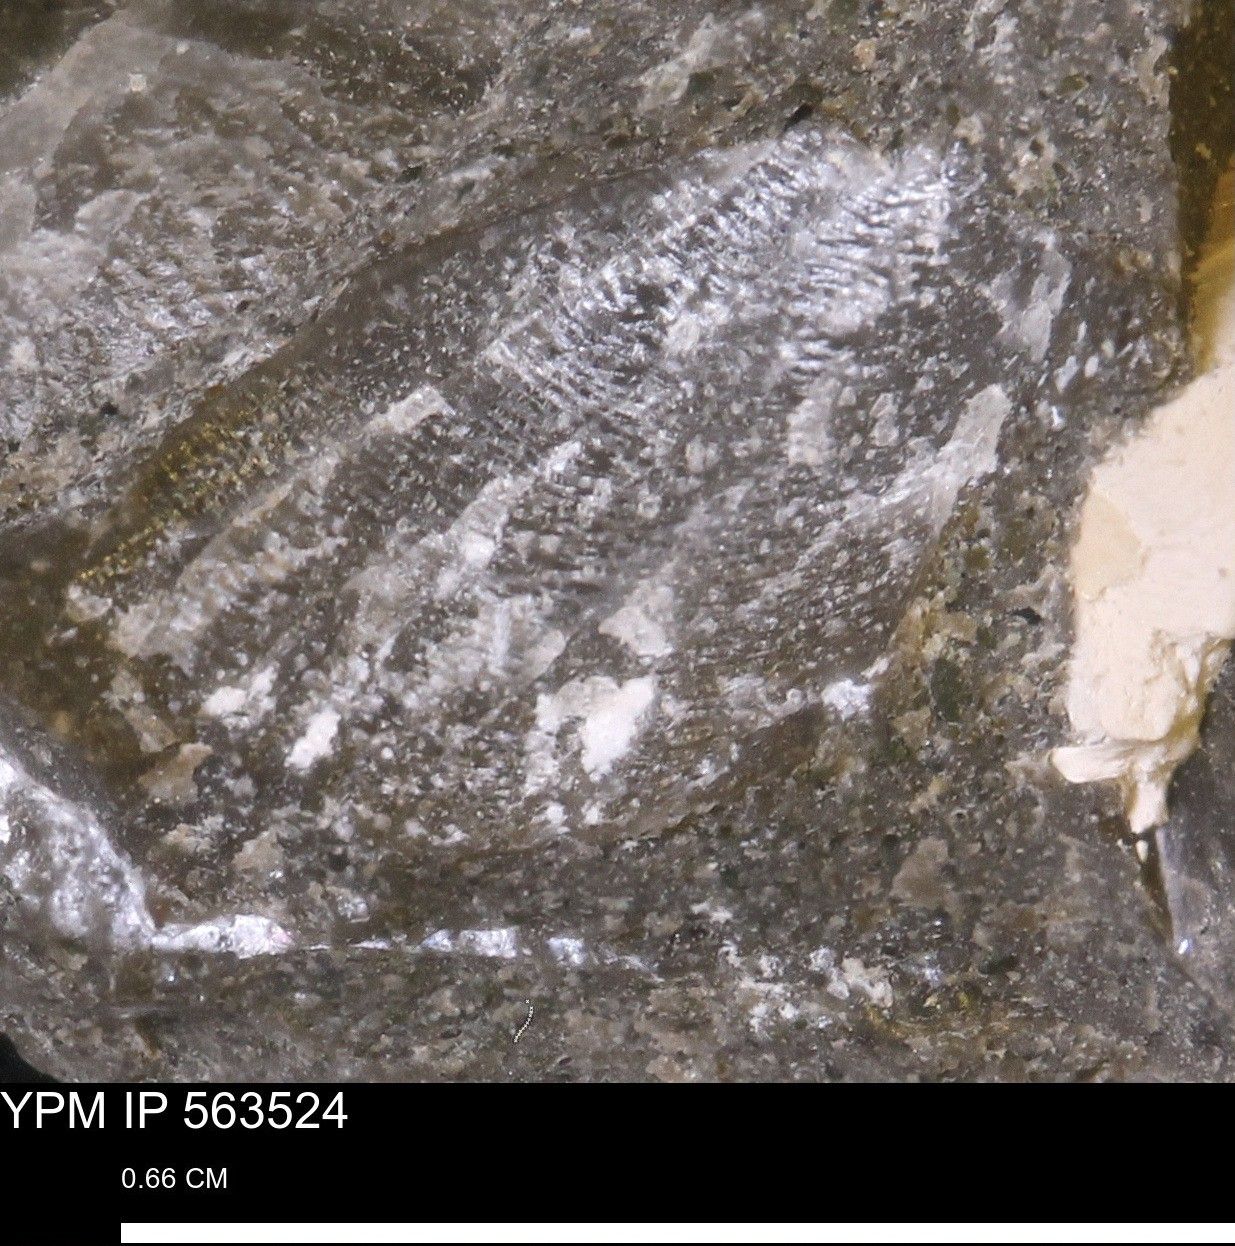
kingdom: Animalia
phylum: Mollusca
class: Bivalvia
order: Pectinida
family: Oxytomidae
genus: Hypoxytoma
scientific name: Hypoxytoma
